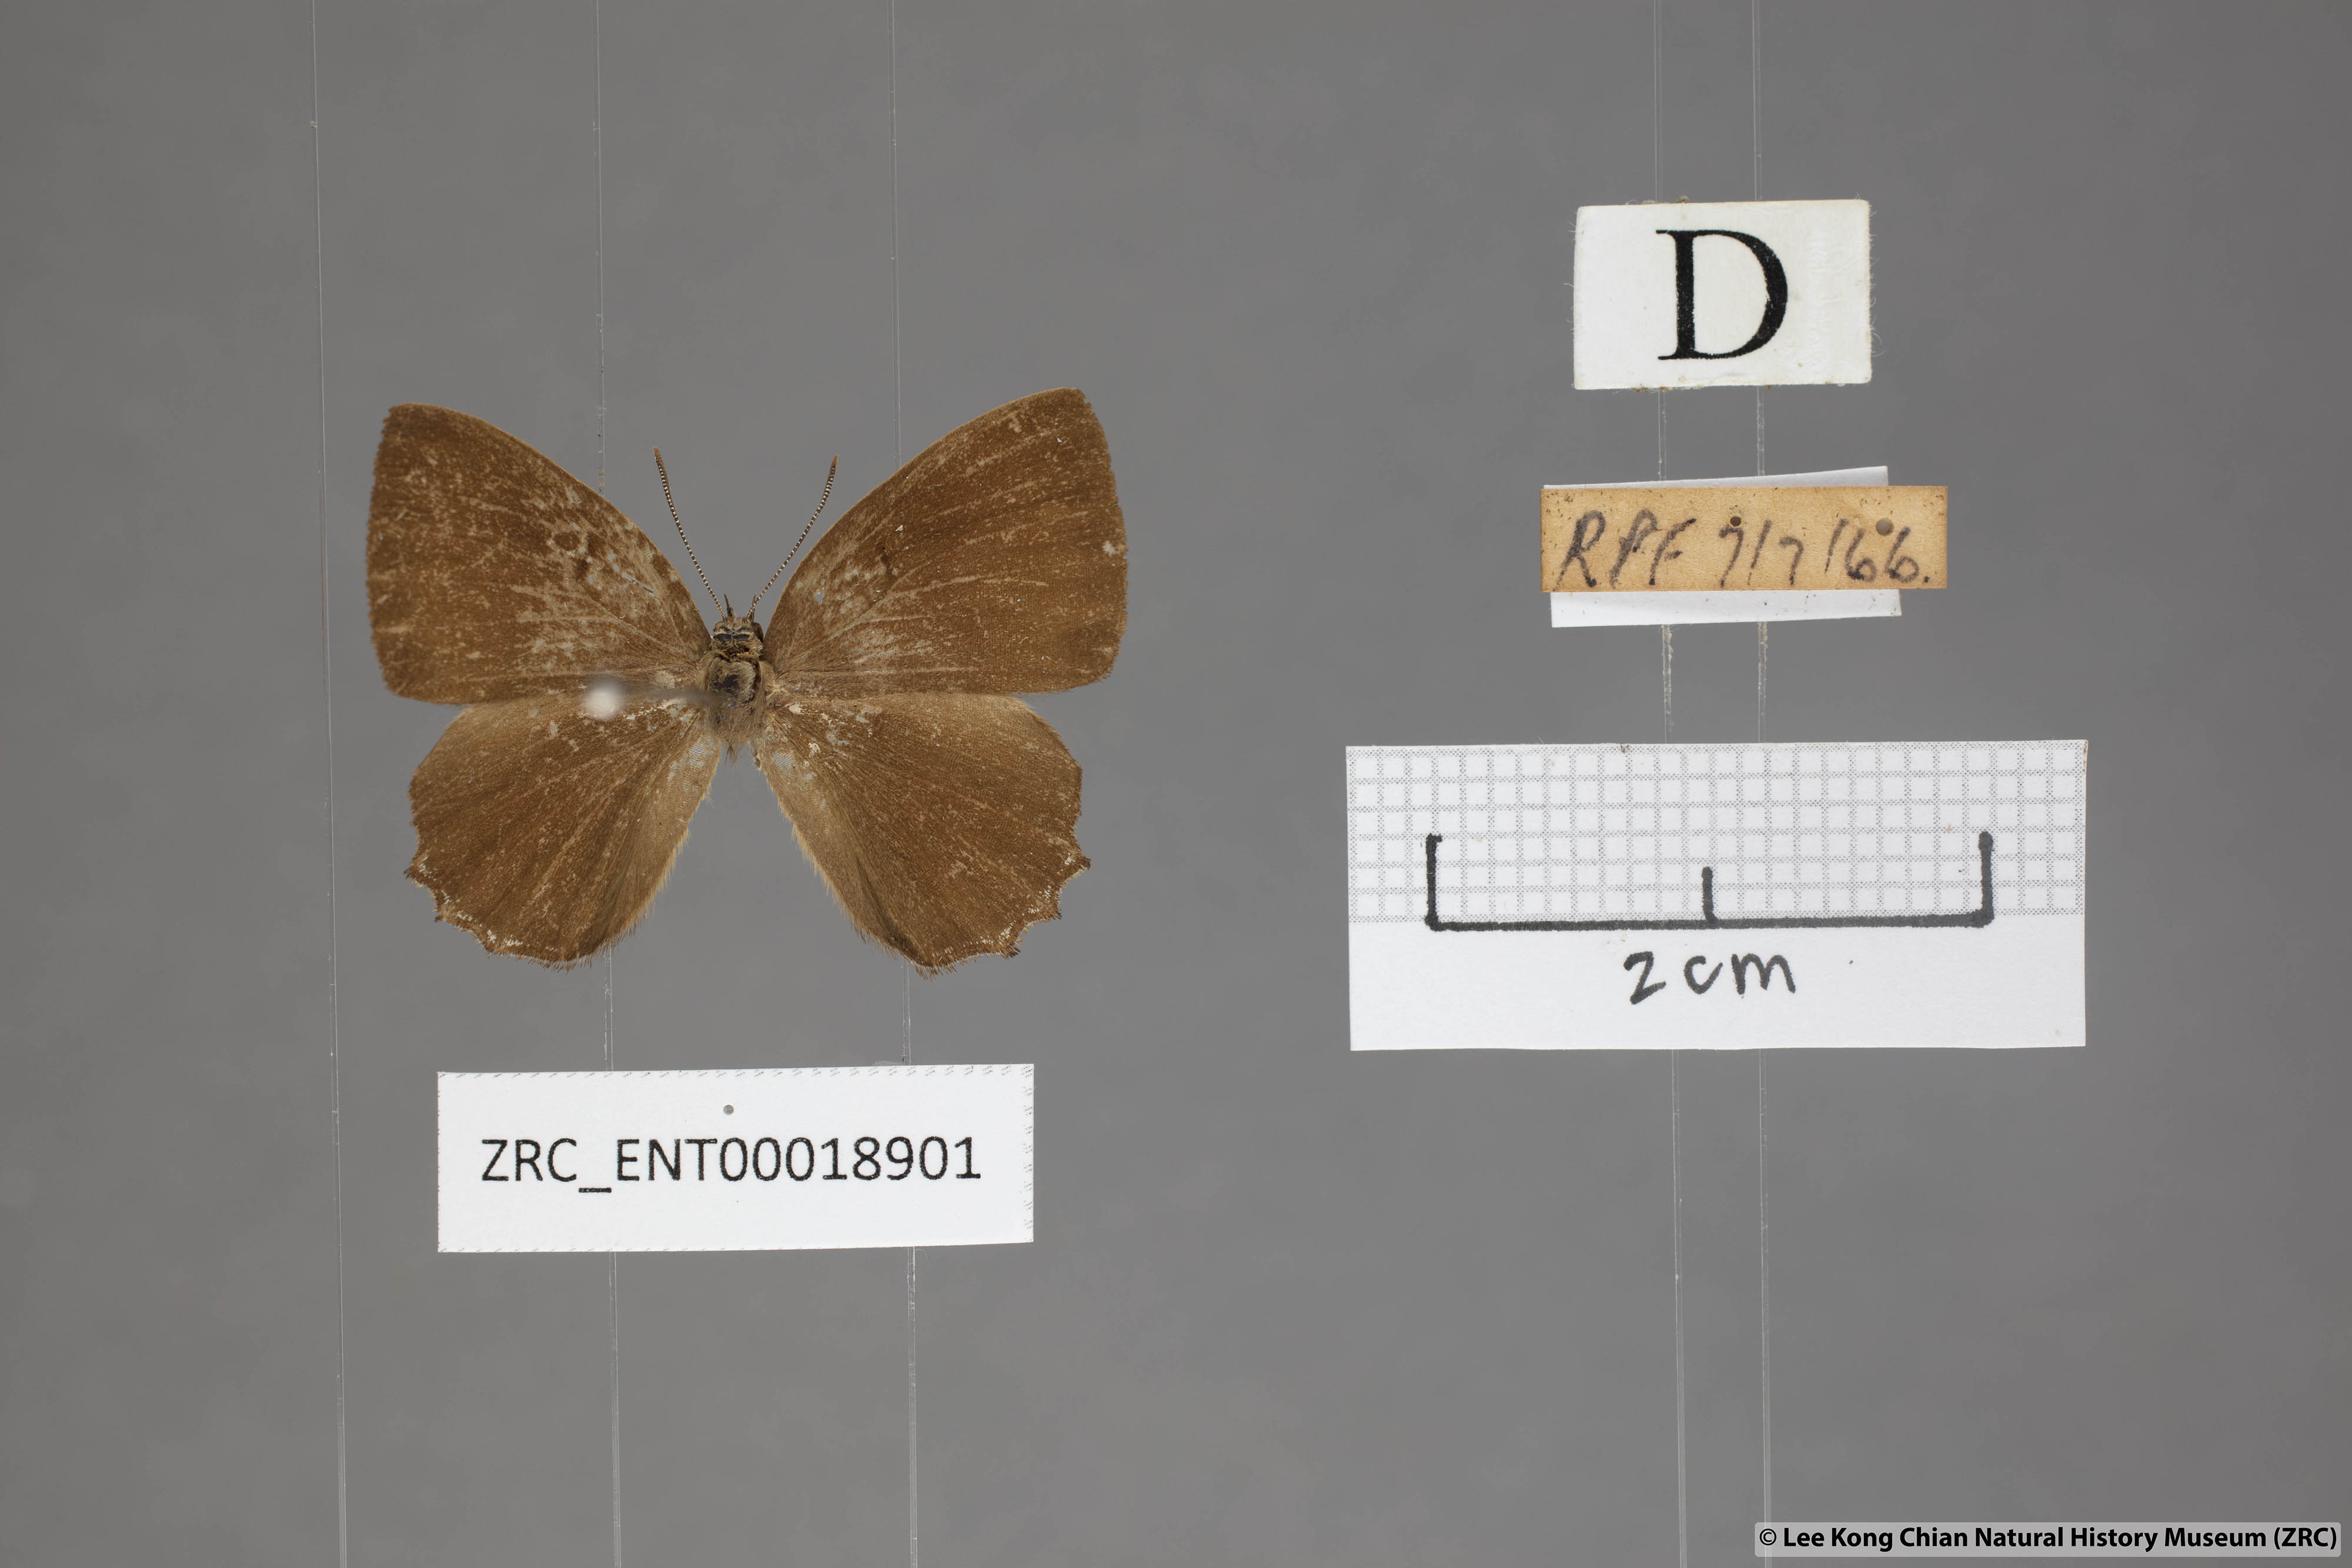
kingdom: Animalia
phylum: Arthropoda
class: Insecta
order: Lepidoptera
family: Lycaenidae
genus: Simiskina
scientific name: Simiskina
